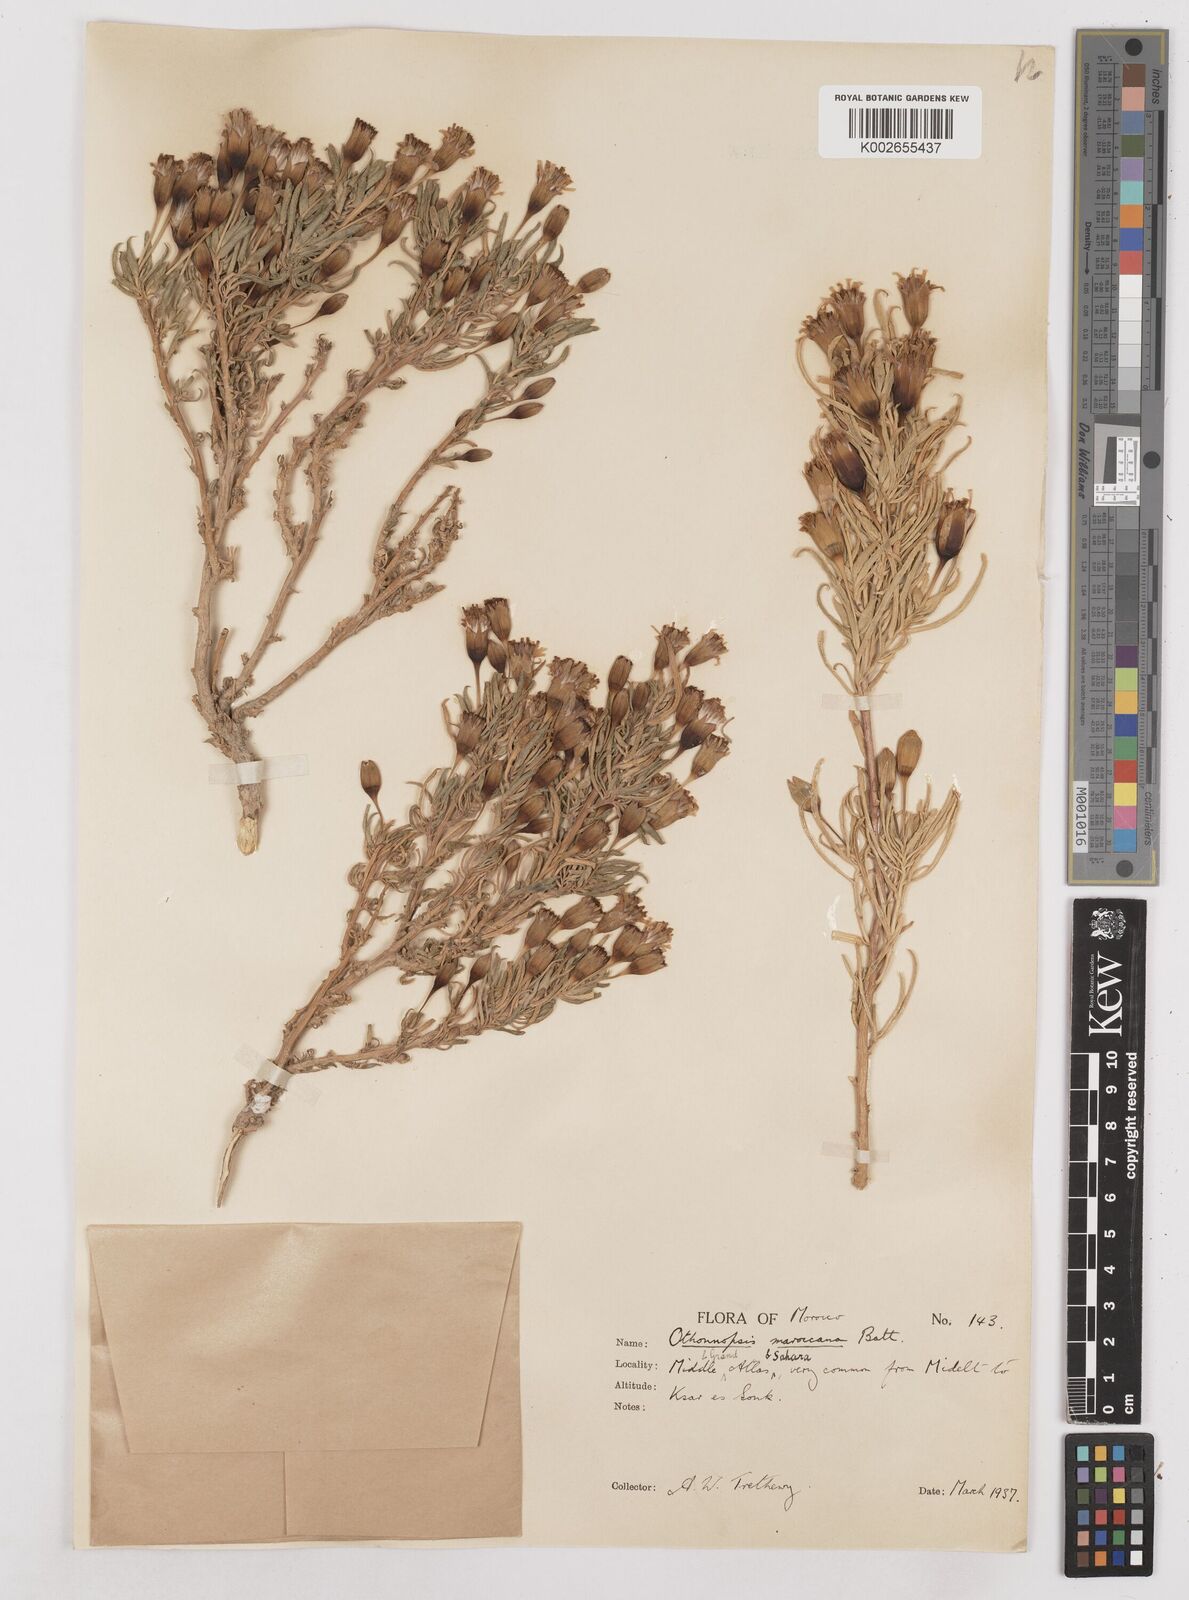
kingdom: Plantae
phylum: Tracheophyta
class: Magnoliopsida
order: Asterales
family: Asteraceae
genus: Hertia
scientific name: Hertia maroccana
